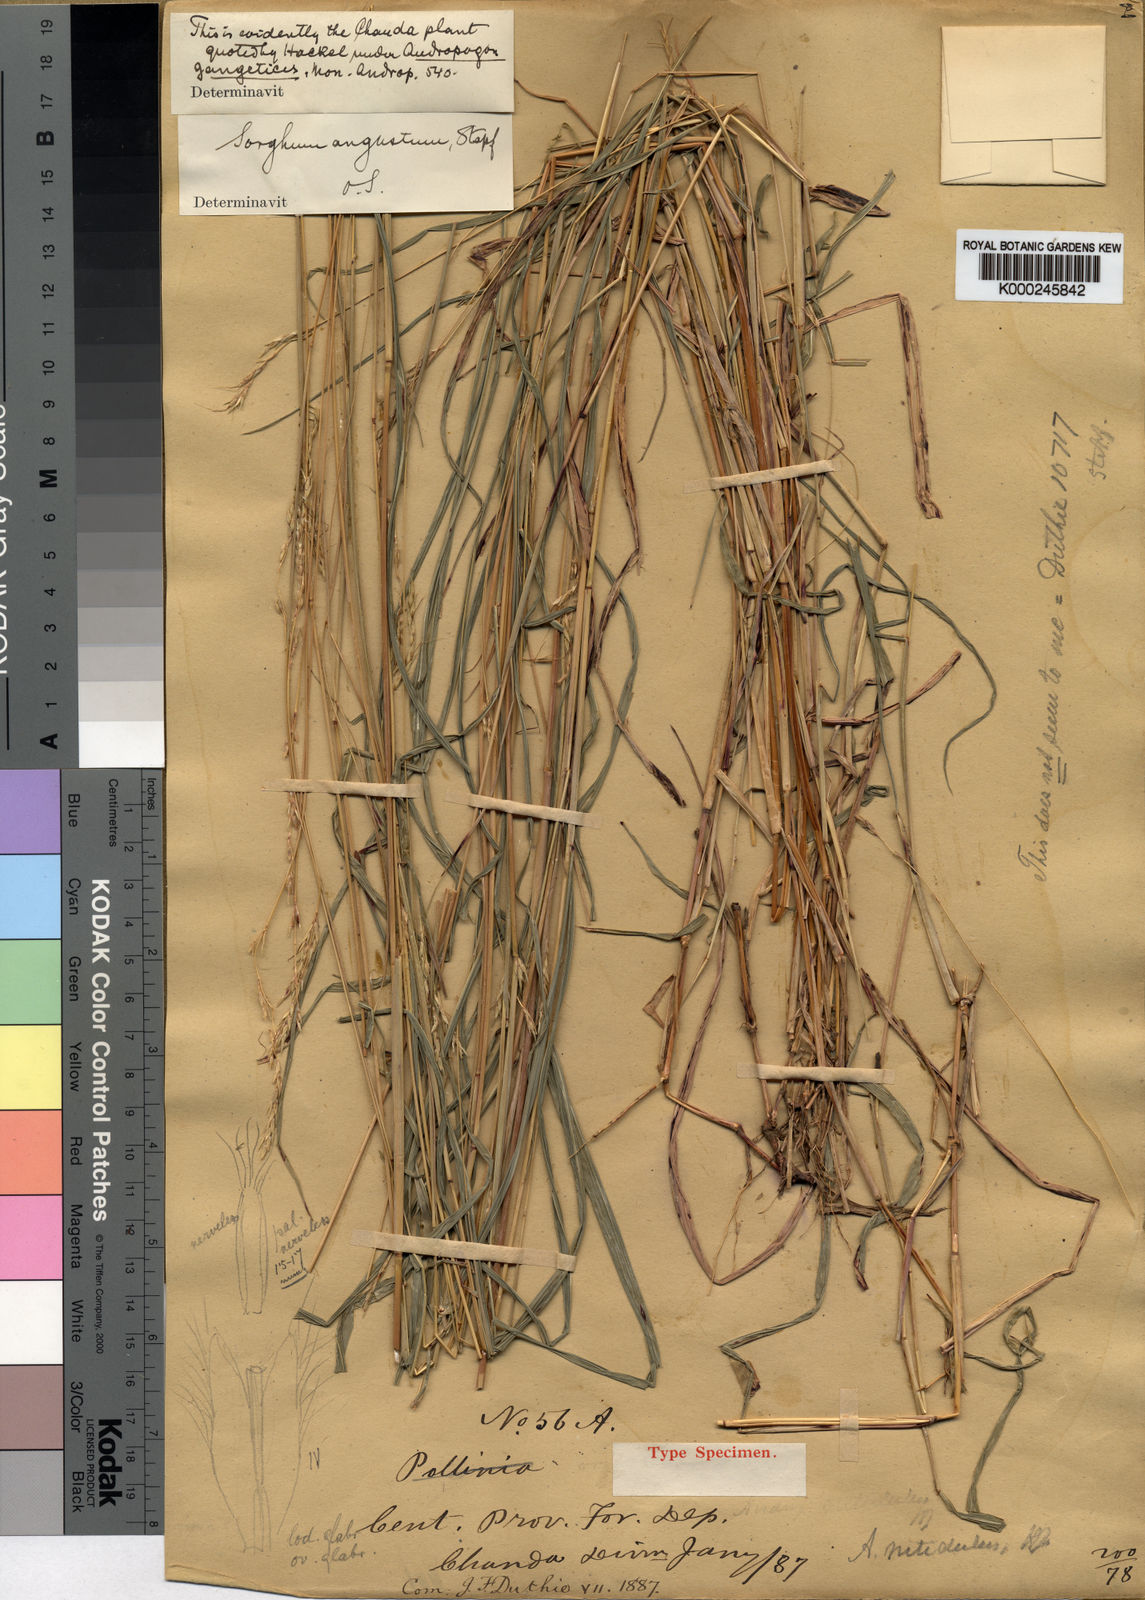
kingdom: Plantae
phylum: Tracheophyta
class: Liliopsida
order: Poales
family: Poaceae
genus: Pseudosorghum
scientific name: Pseudosorghum fasciculare
